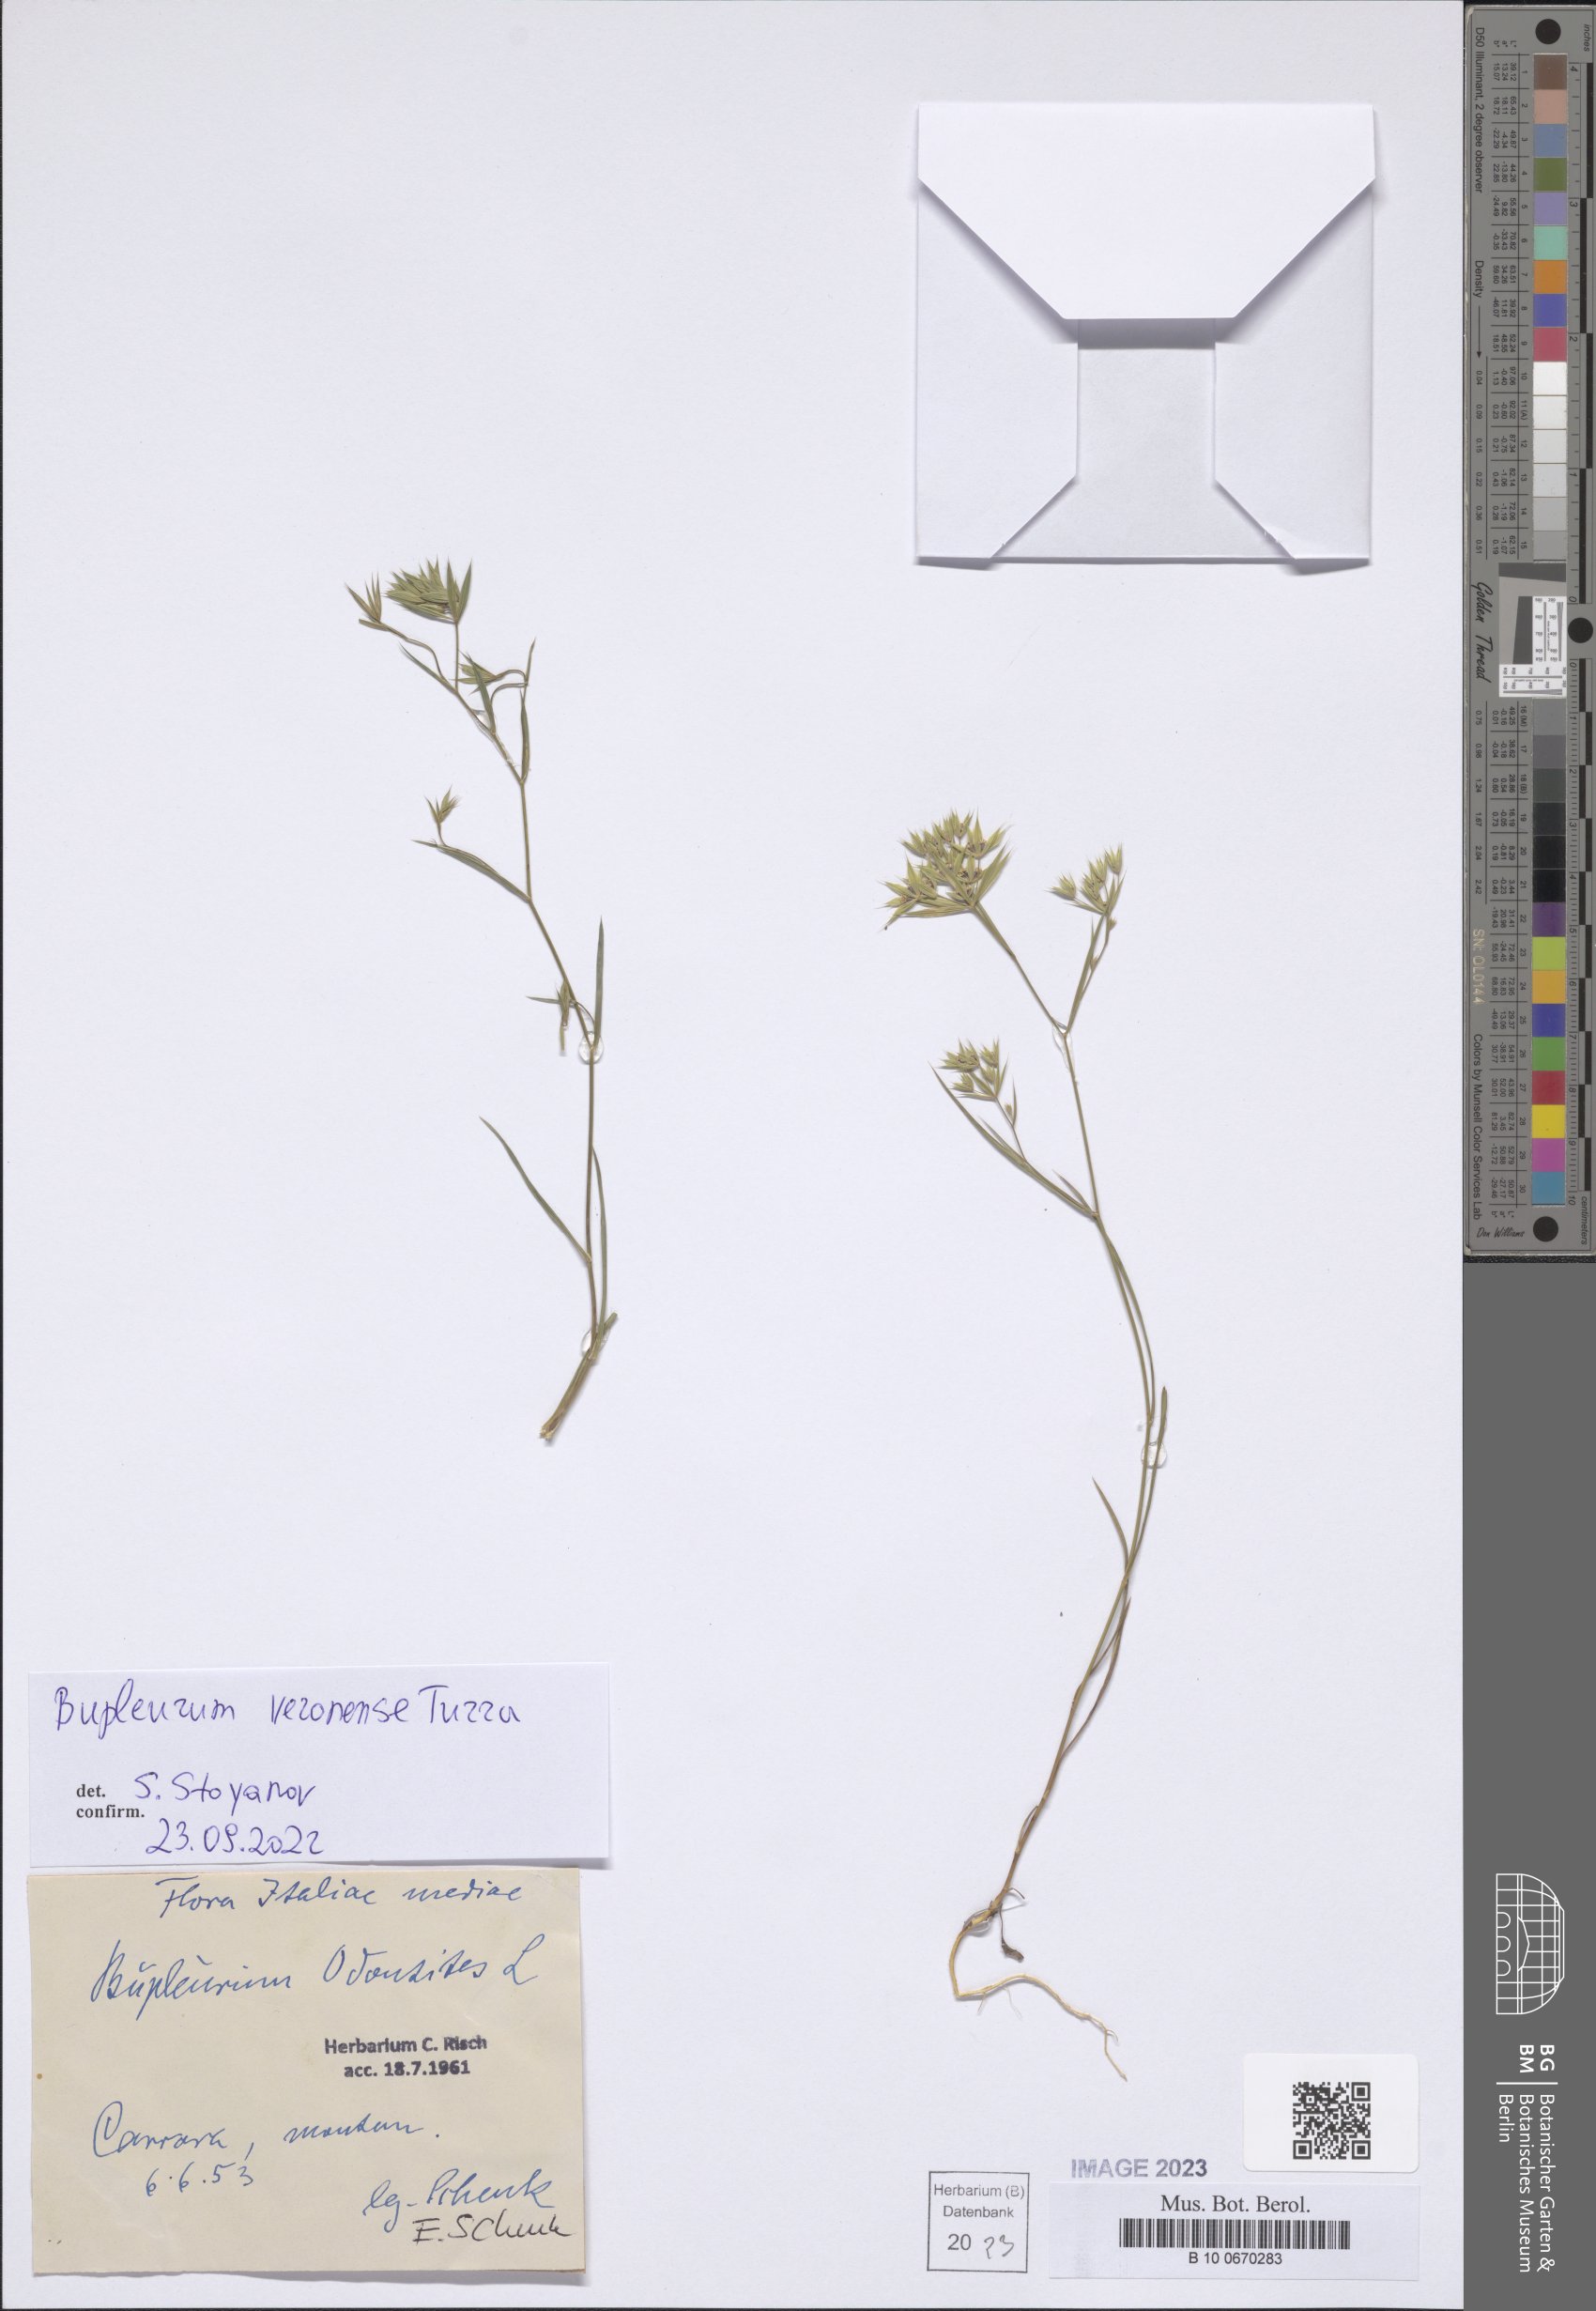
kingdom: Plantae
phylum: Tracheophyta
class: Magnoliopsida
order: Apiales
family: Apiaceae
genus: Bupleurum
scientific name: Bupleurum veronense
